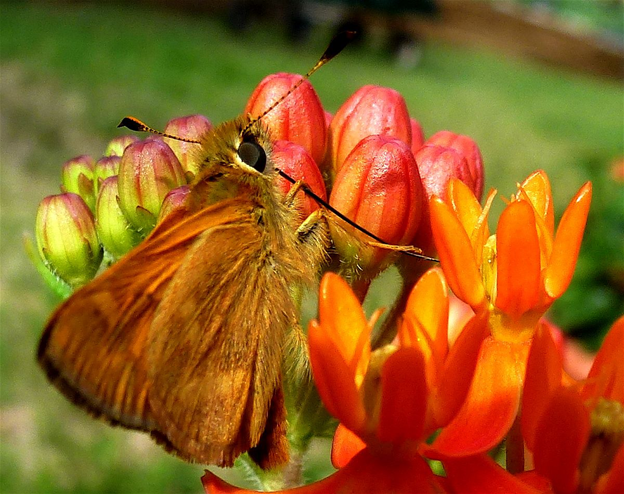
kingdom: Animalia
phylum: Arthropoda
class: Insecta
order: Lepidoptera
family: Hesperiidae
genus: Ochlodes
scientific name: Ochlodes sylvanoides
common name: Woodland Skipper
